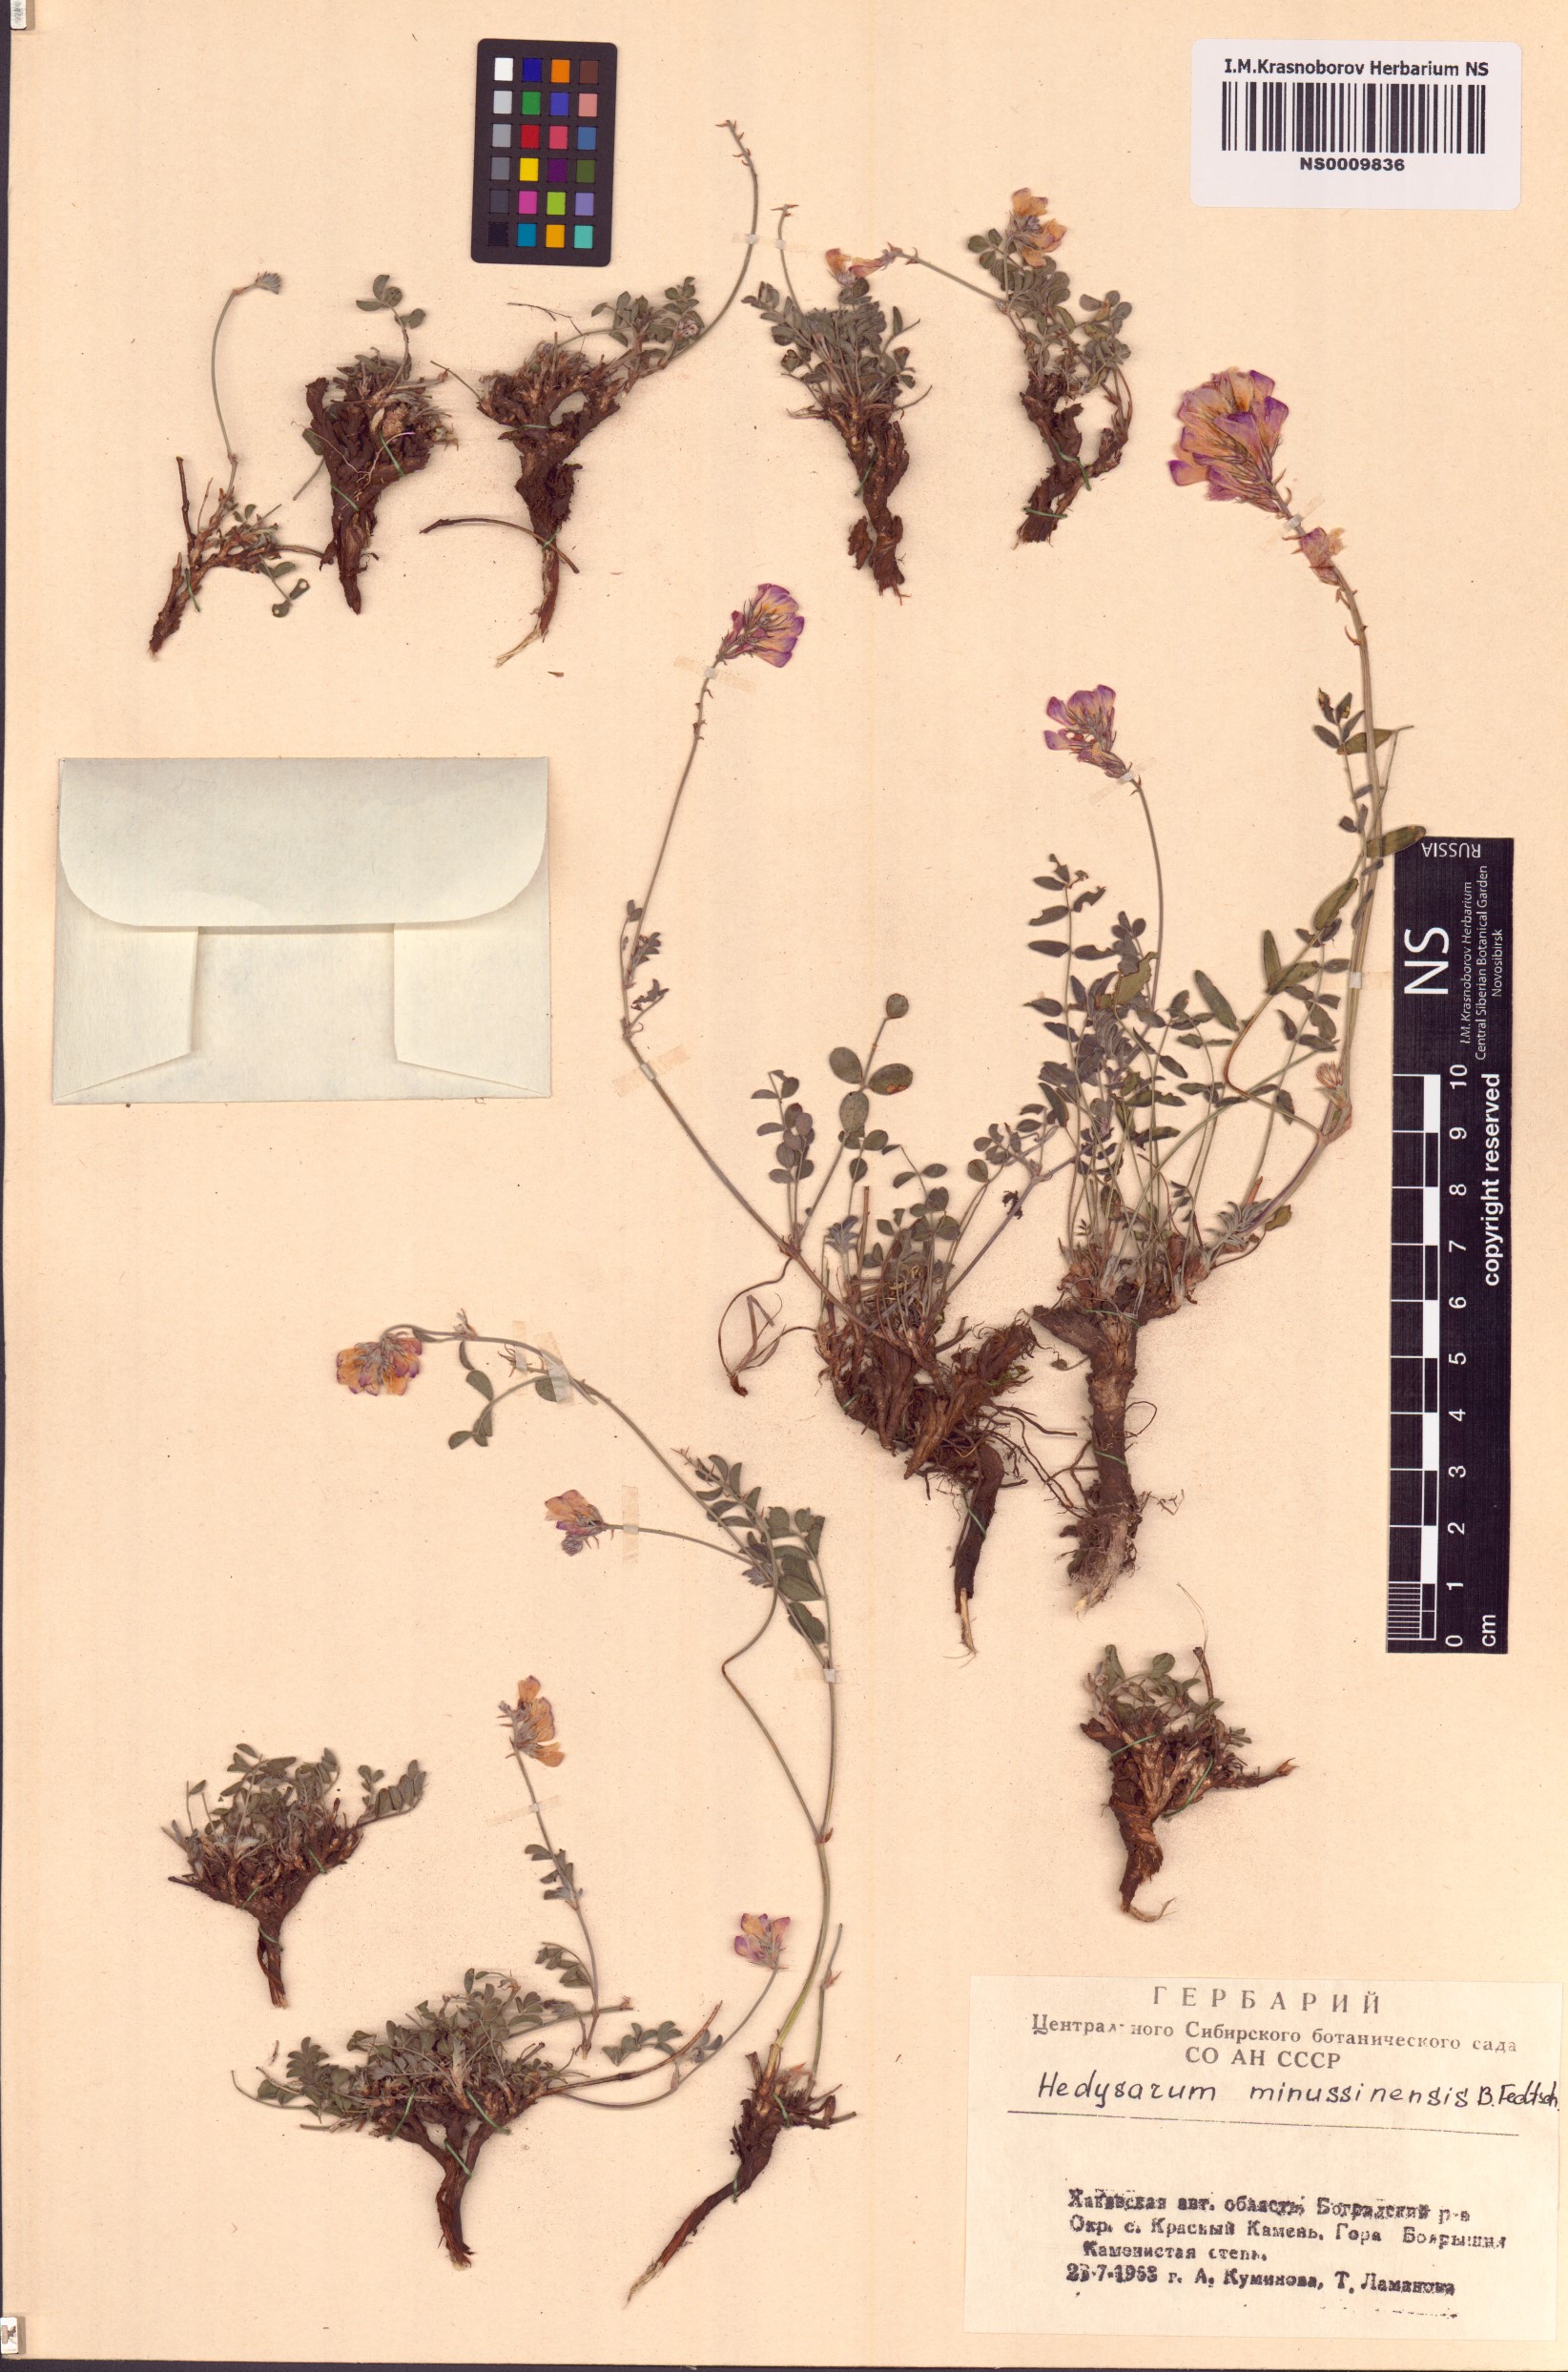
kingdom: Plantae
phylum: Tracheophyta
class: Magnoliopsida
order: Fabales
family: Fabaceae
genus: Hedysarum
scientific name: Hedysarum minussinense
